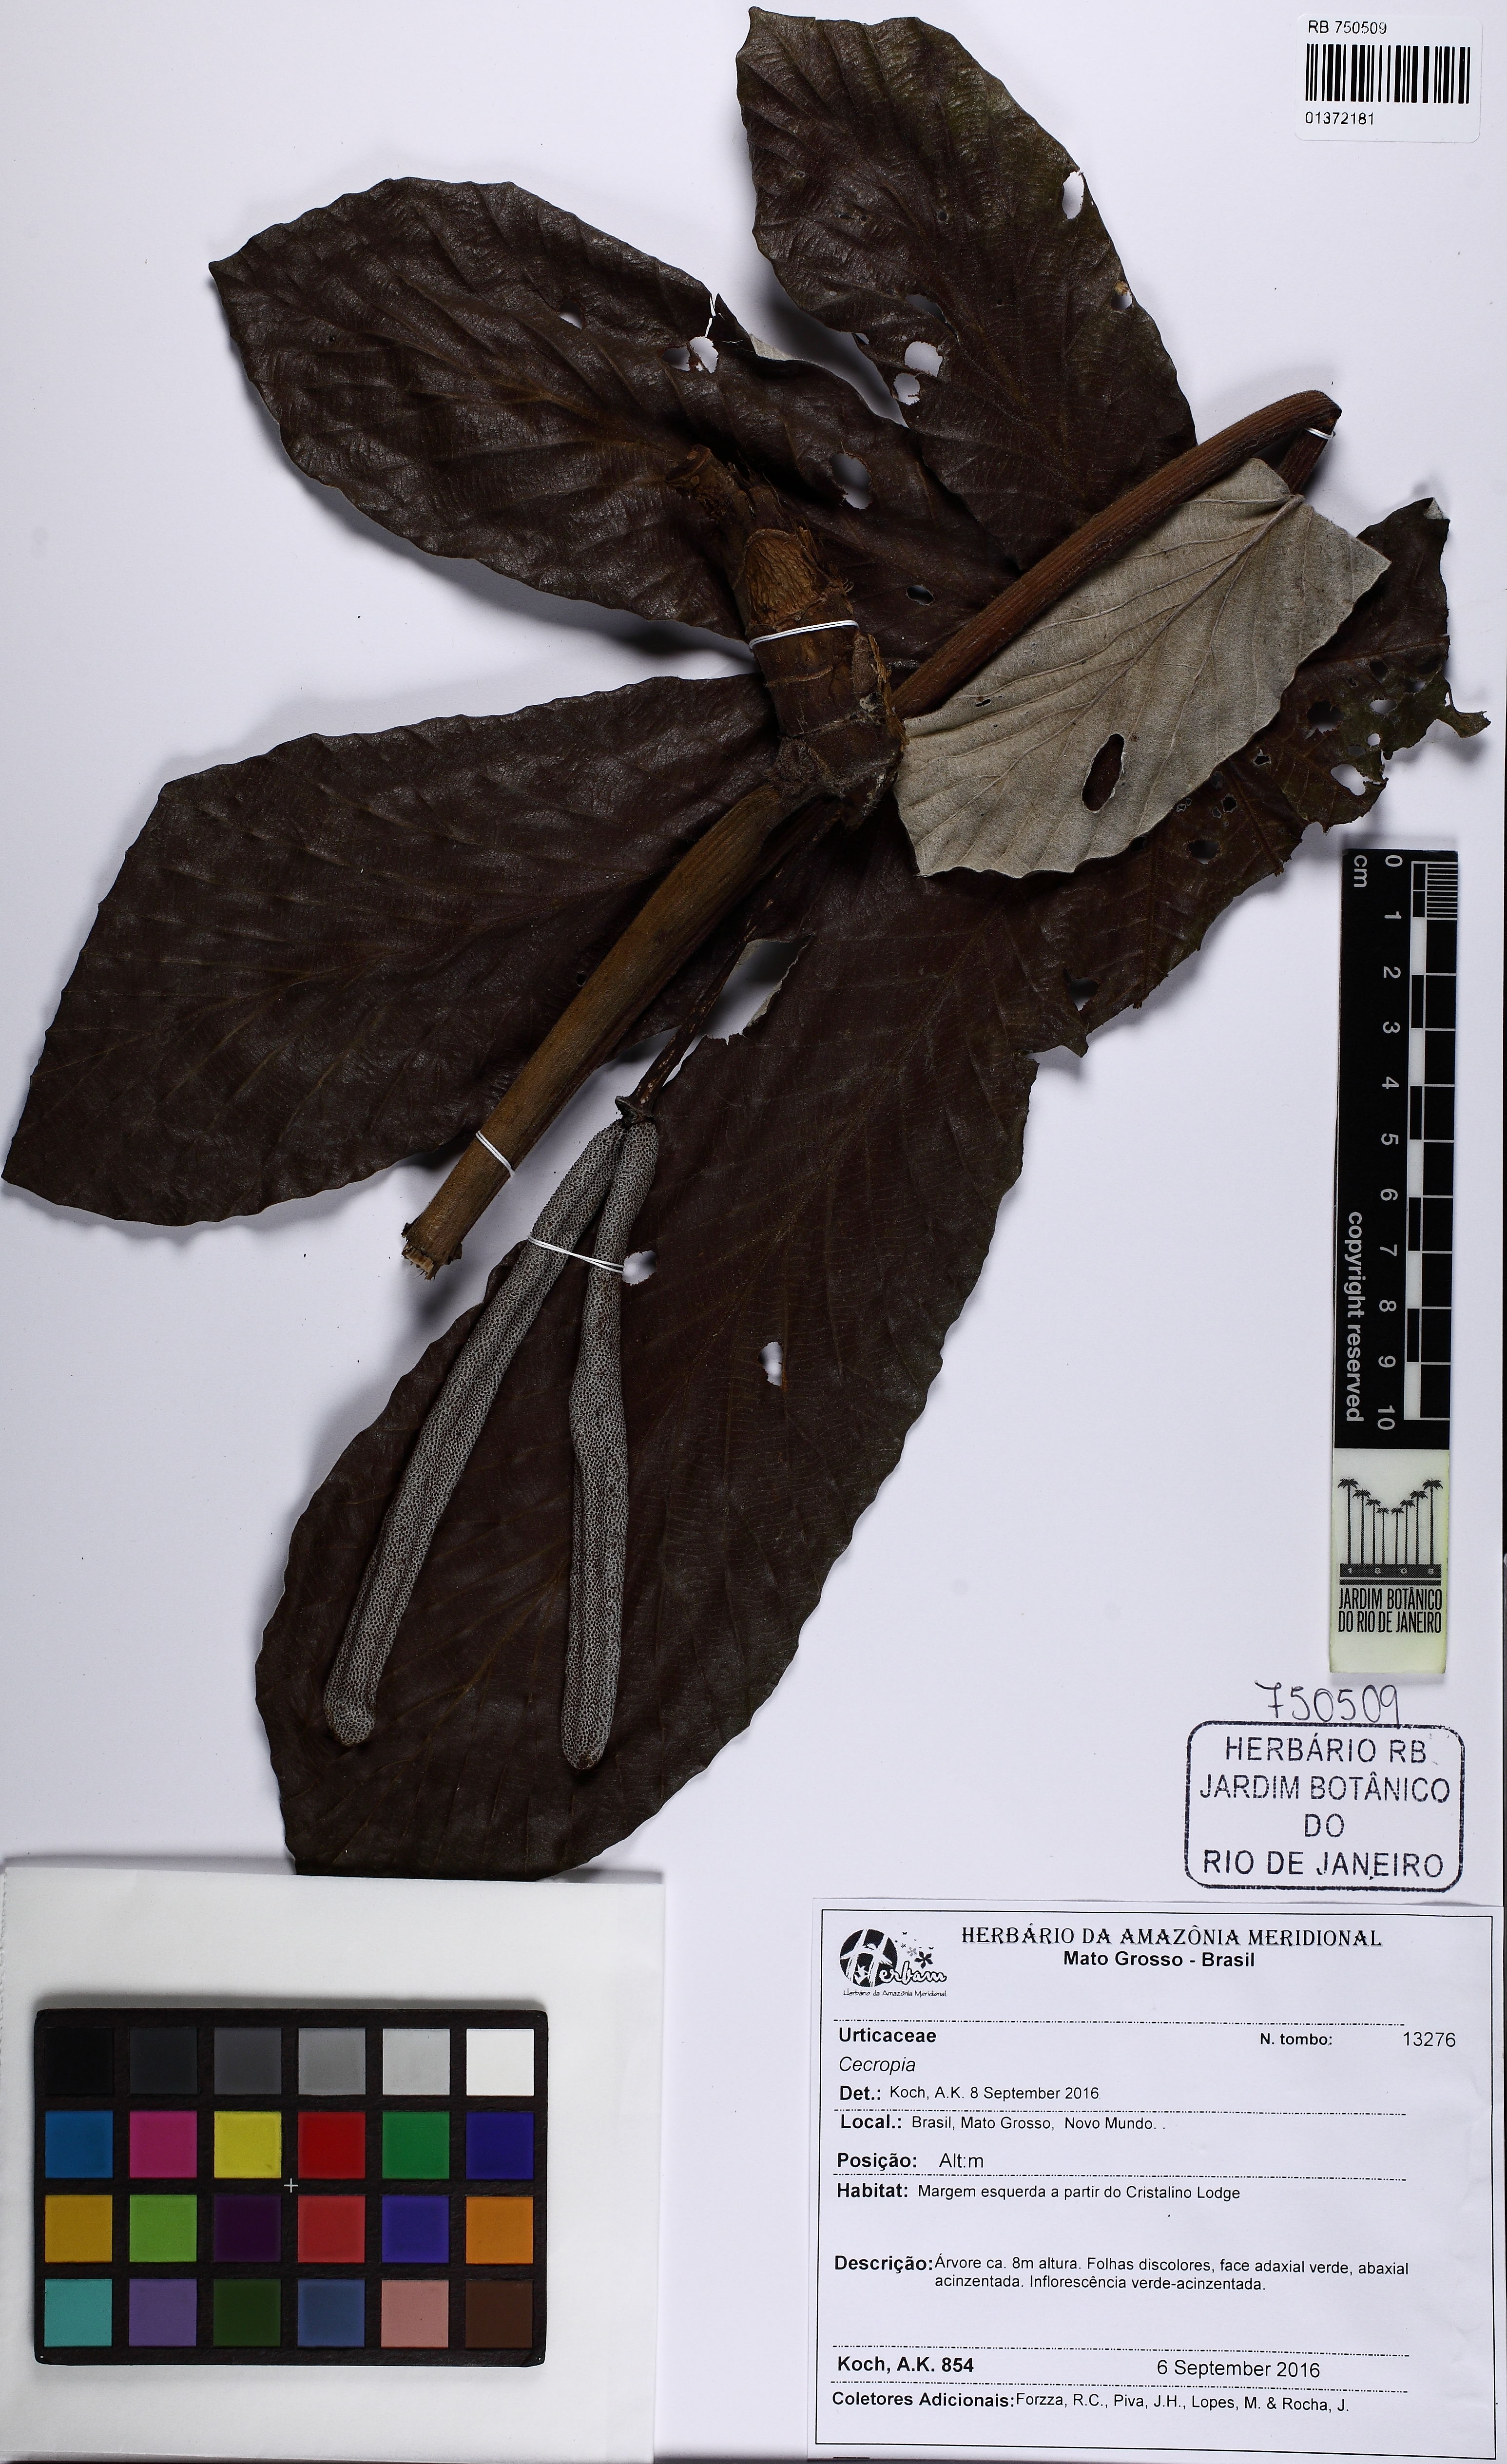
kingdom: Plantae
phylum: Tracheophyta
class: Magnoliopsida
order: Rosales
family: Urticaceae
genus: Cecropia
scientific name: Cecropia distachya
